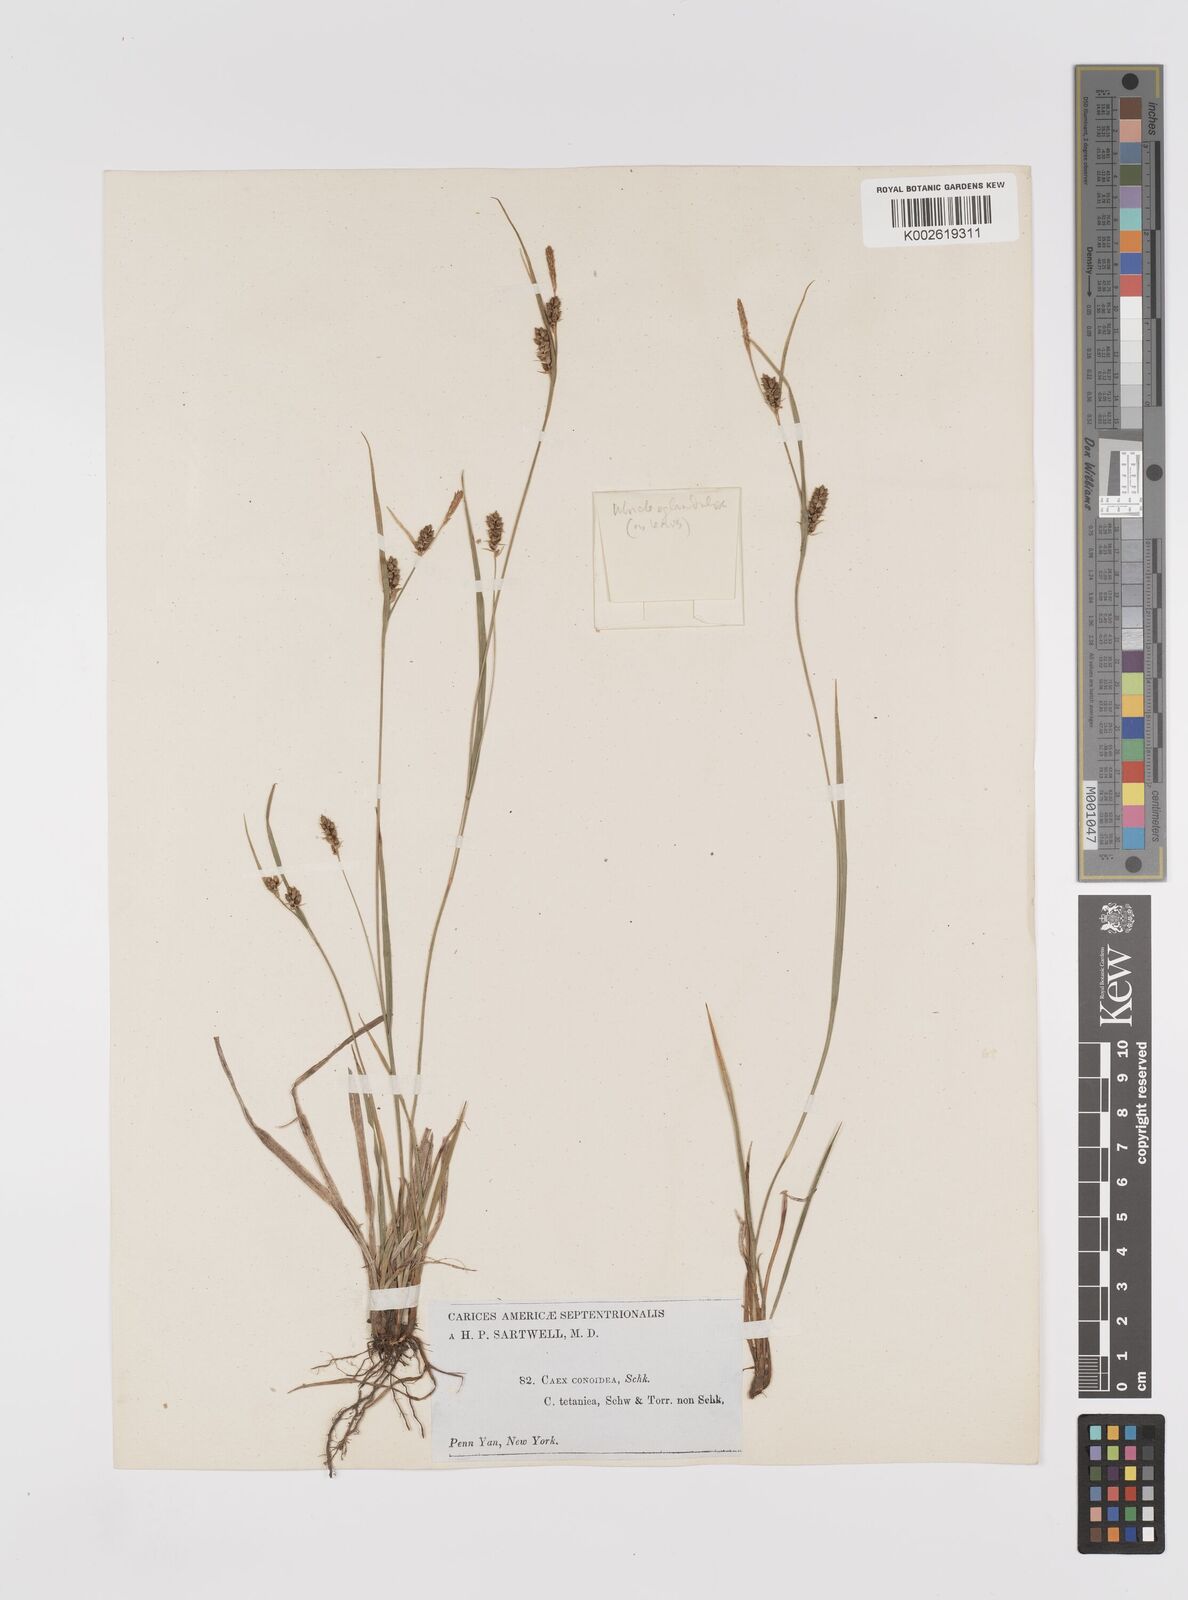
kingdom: Plantae
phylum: Tracheophyta
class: Liliopsida
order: Poales
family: Cyperaceae
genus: Carex
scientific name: Carex conoidea
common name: Cone shaped sedge
